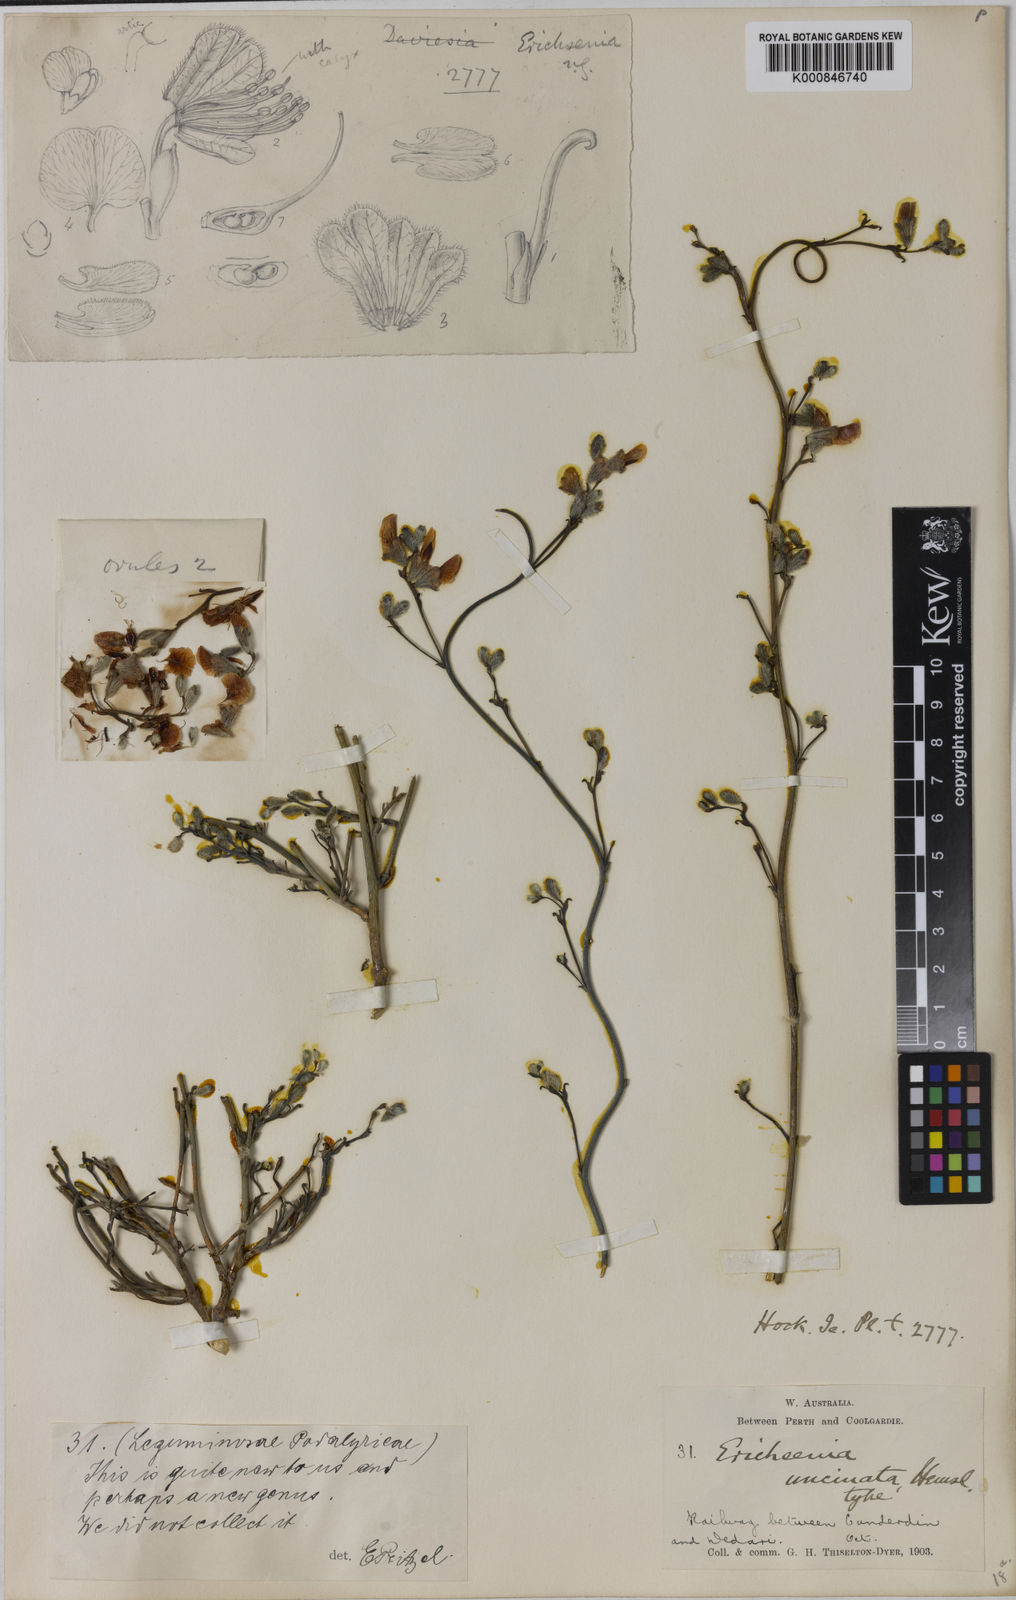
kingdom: Plantae
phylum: Tracheophyta
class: Magnoliopsida
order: Fabales
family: Fabaceae
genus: Erichsenia
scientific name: Erichsenia uncinata
